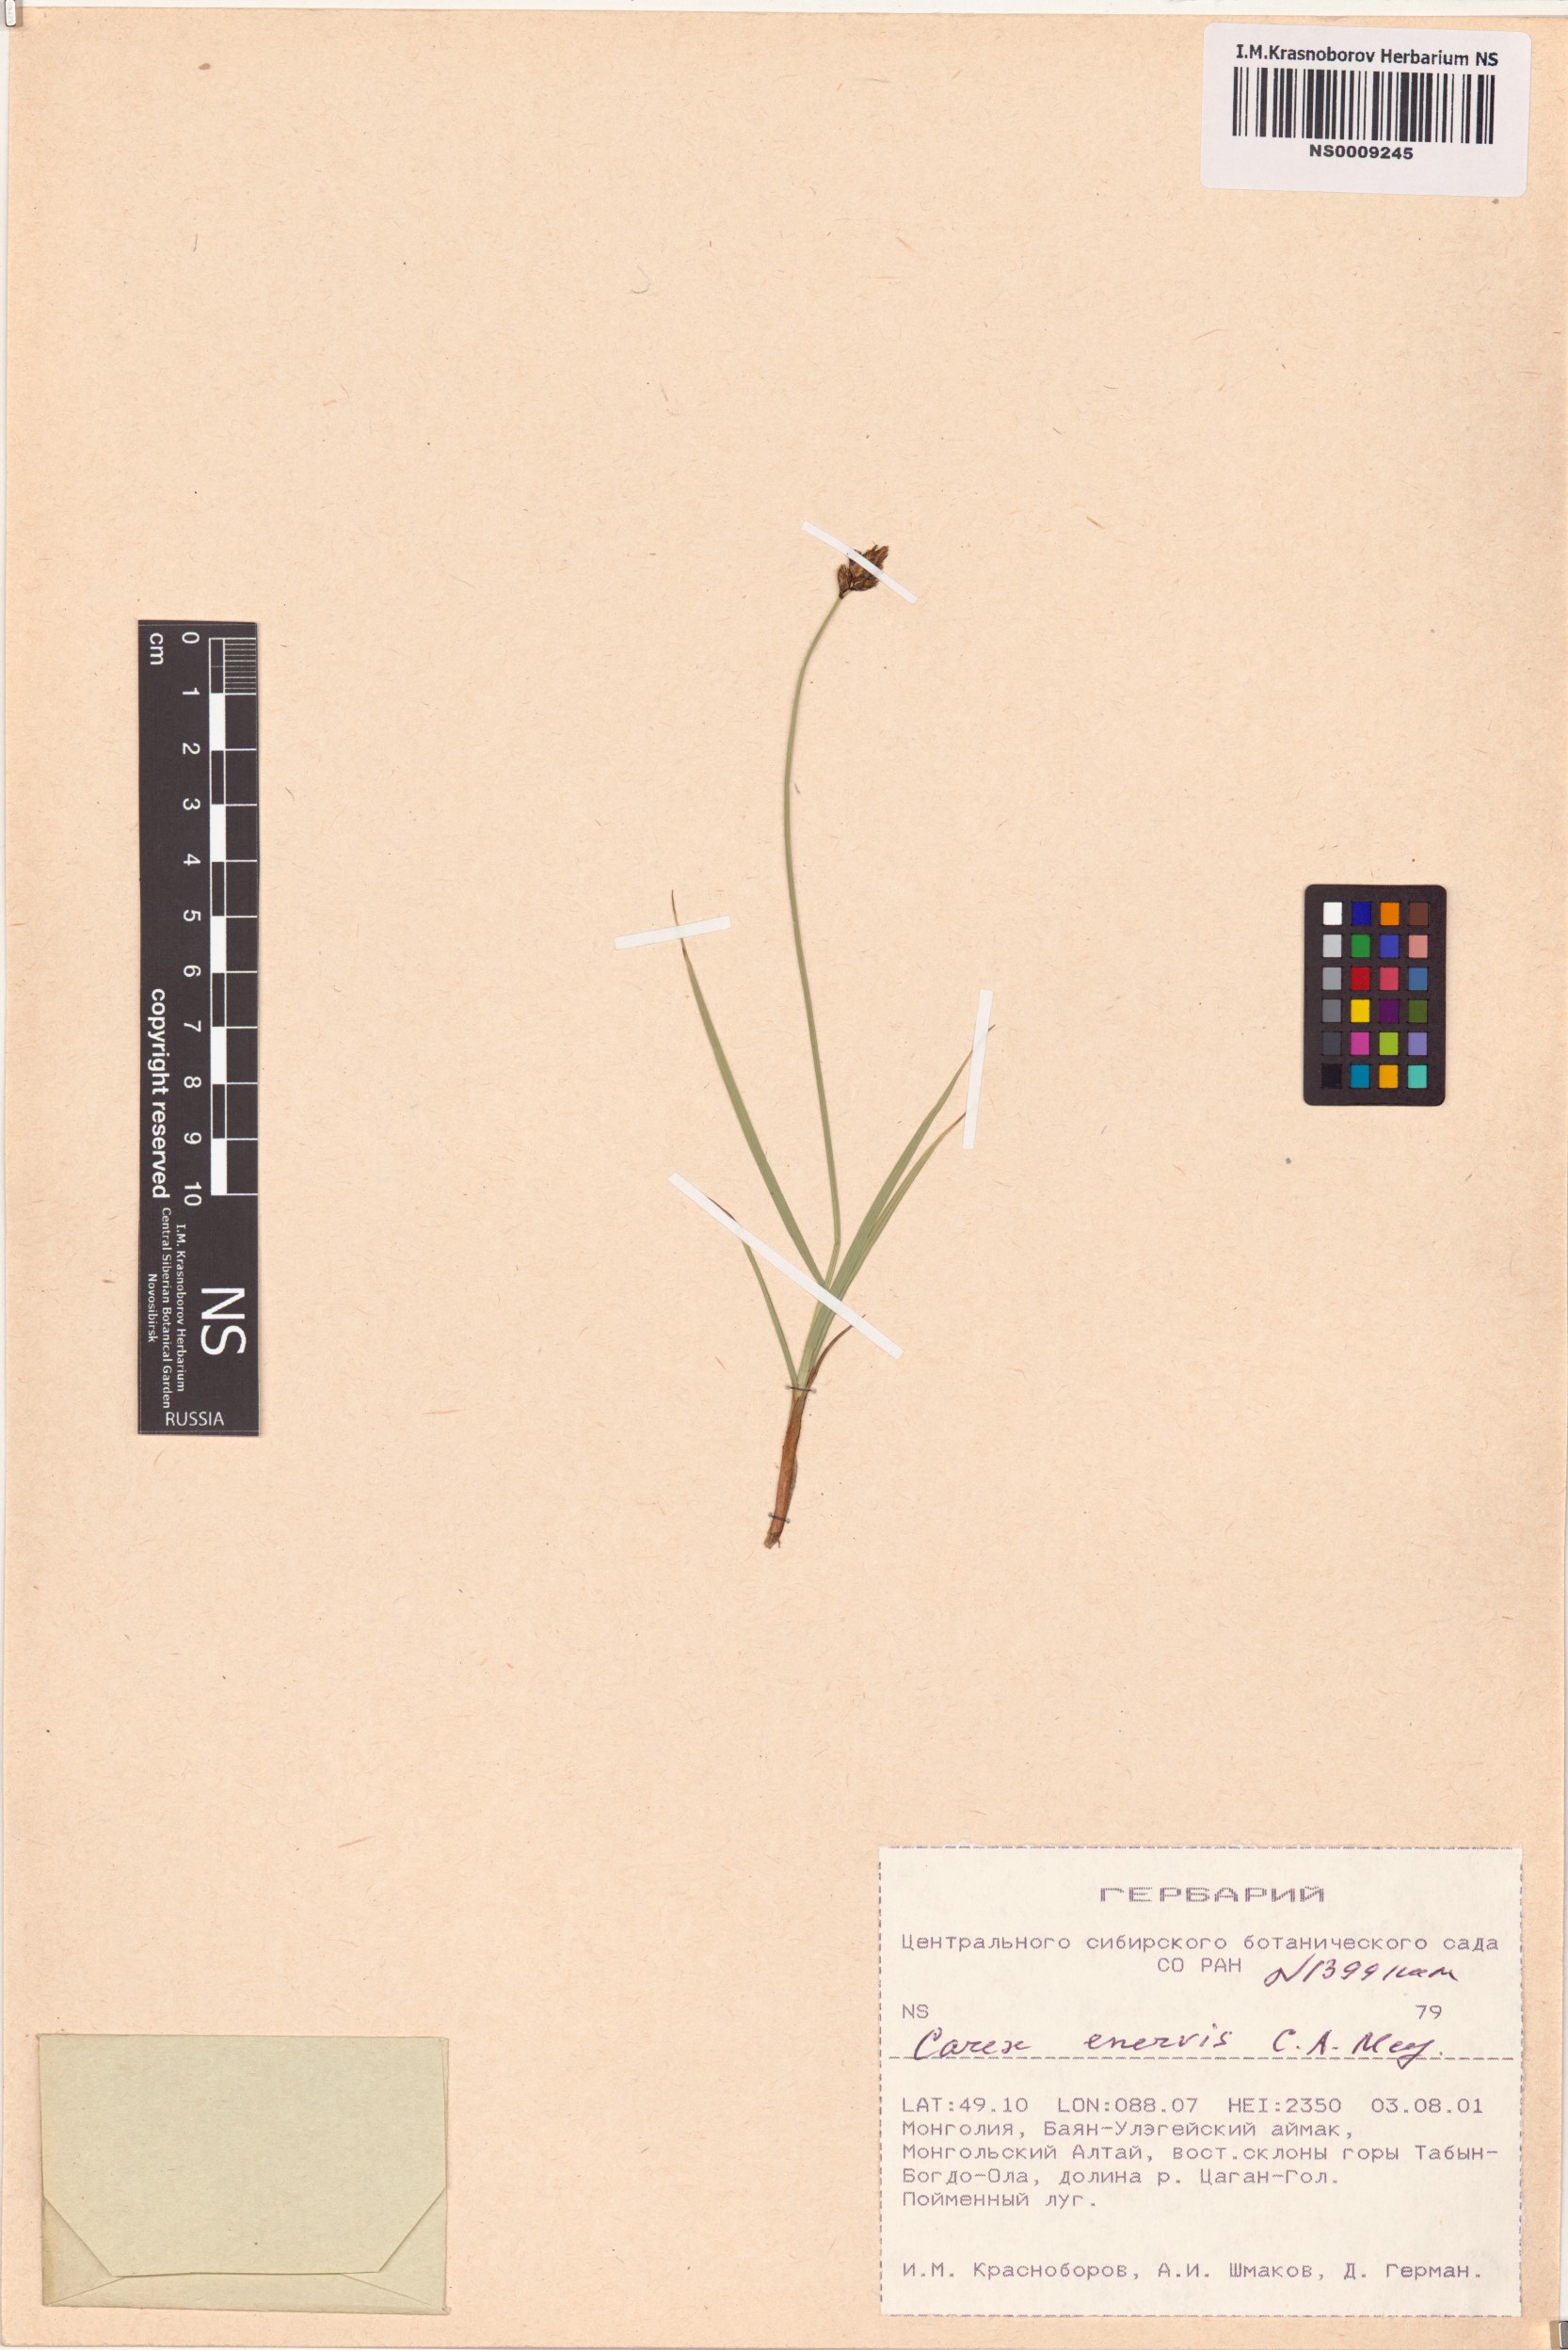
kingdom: Plantae
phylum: Tracheophyta
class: Liliopsida
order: Poales
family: Cyperaceae
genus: Carex
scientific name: Carex enervis
